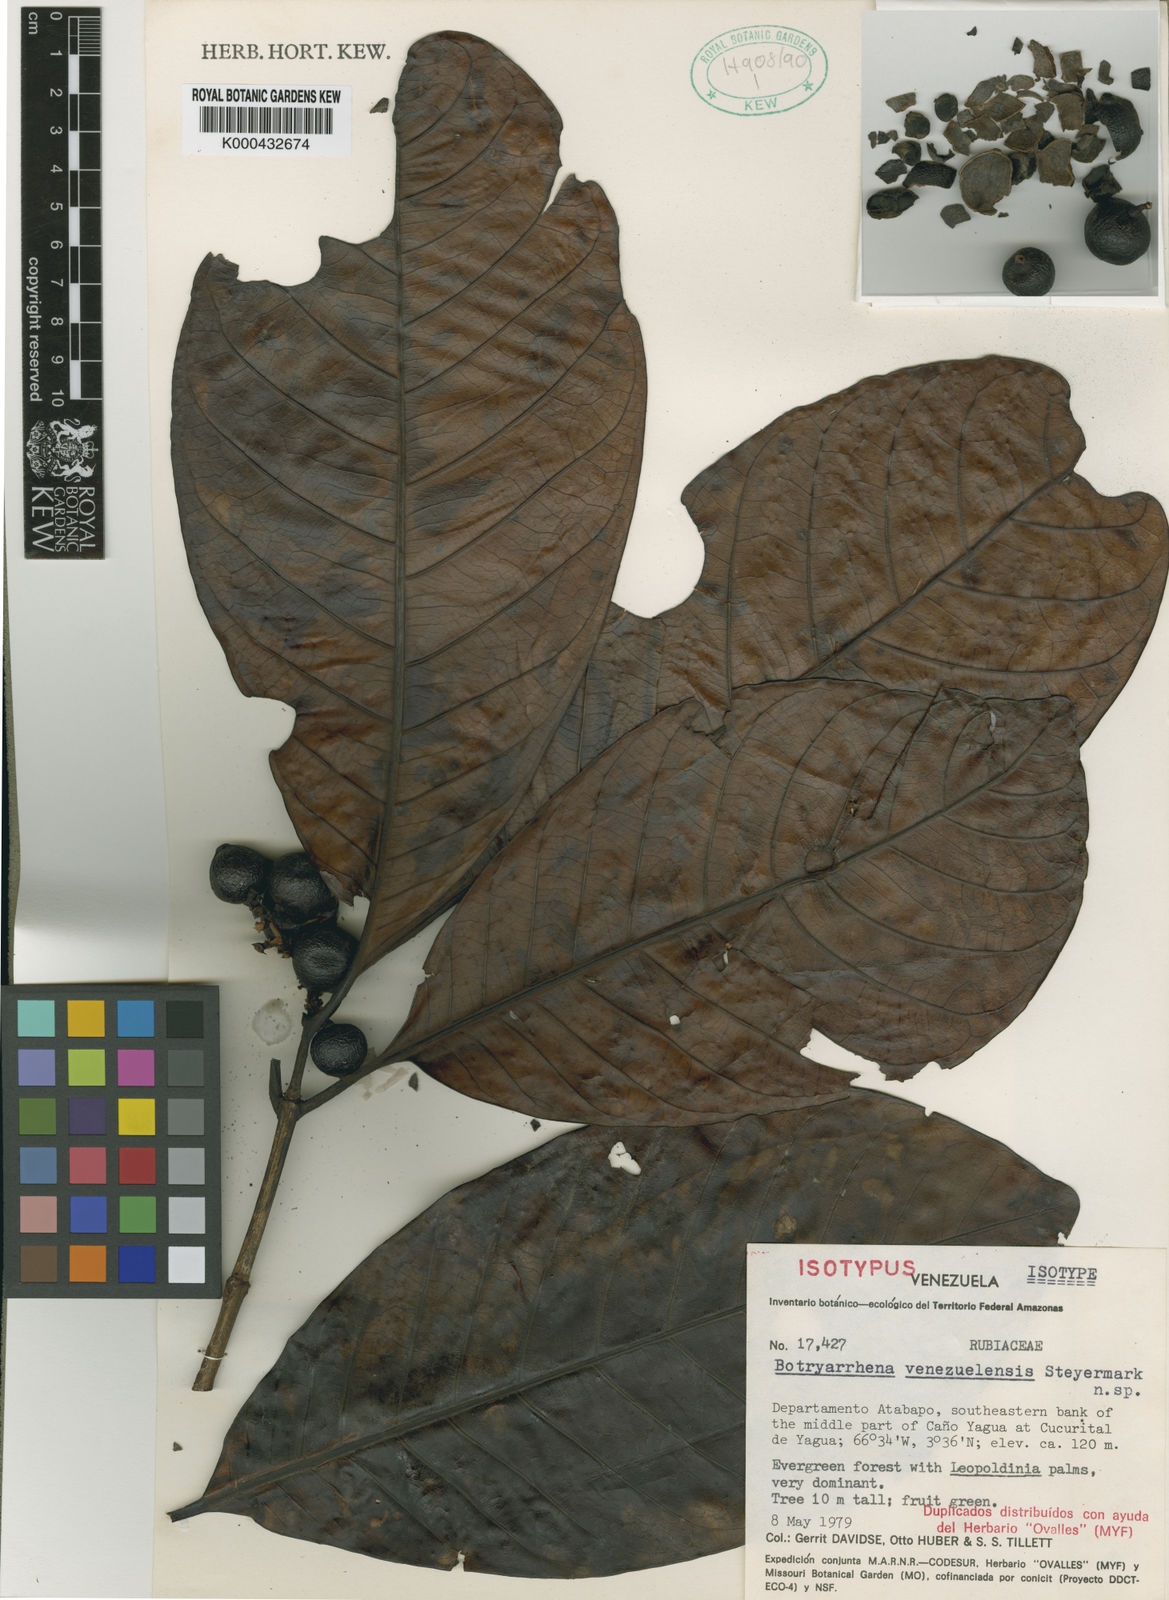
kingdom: Plantae
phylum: Tracheophyta
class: Magnoliopsida
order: Gentianales
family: Rubiaceae
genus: Botryarrhena
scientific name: Botryarrhena venezuelensis
